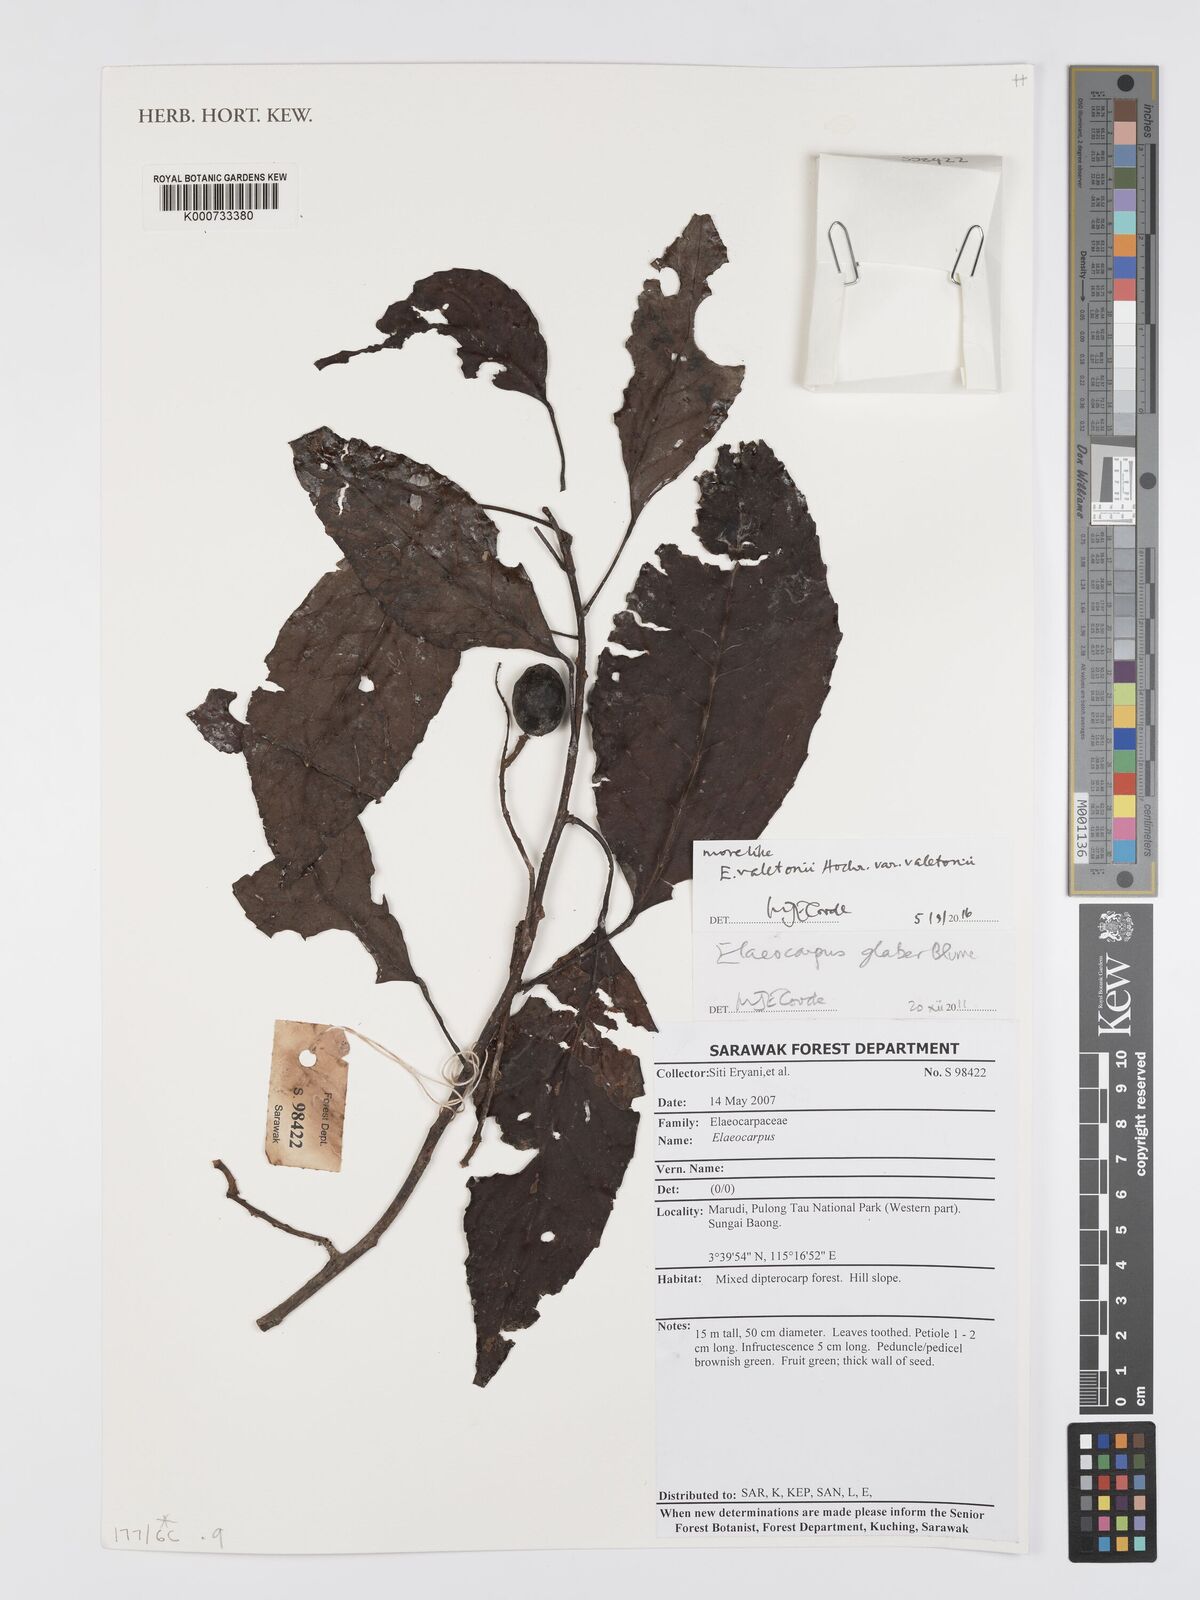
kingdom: Plantae
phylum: Tracheophyta
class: Magnoliopsida
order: Oxalidales
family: Elaeocarpaceae
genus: Elaeocarpus
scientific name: Elaeocarpus valetonii
